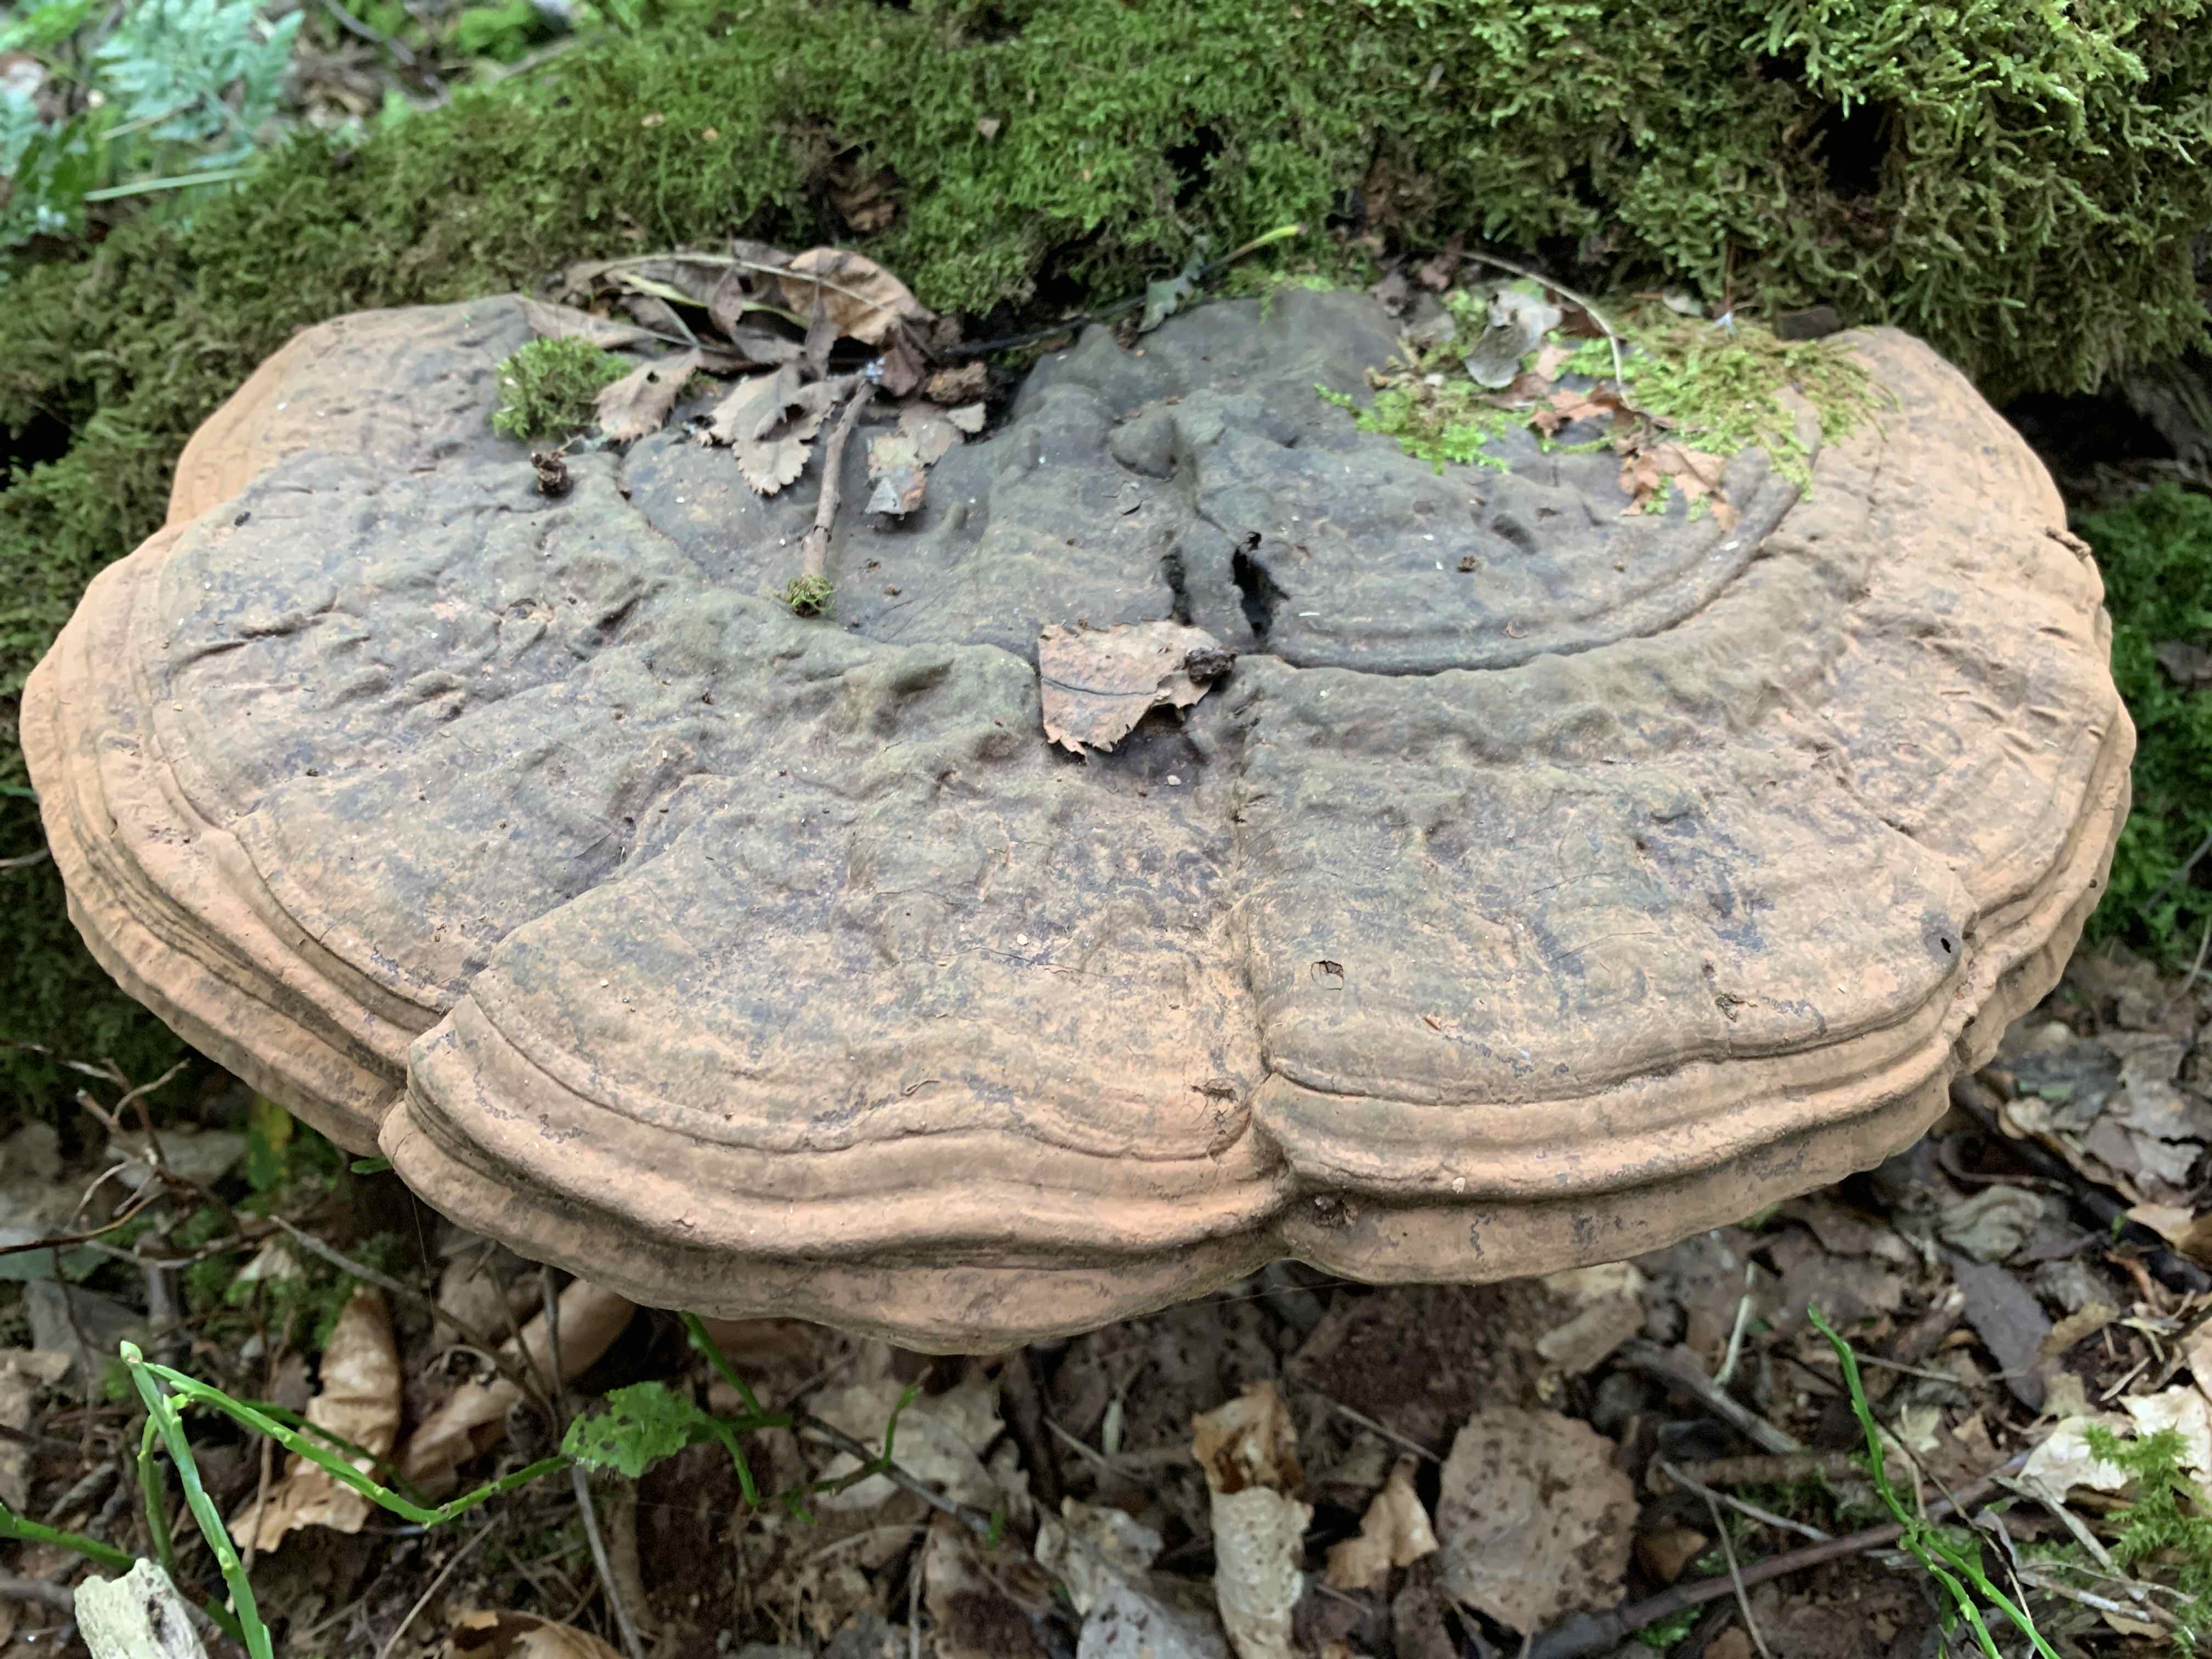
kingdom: Fungi
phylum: Basidiomycota
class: Agaricomycetes
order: Polyporales
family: Polyporaceae
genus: Ganoderma
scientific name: Ganoderma applanatum
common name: flad lakporesvamp
